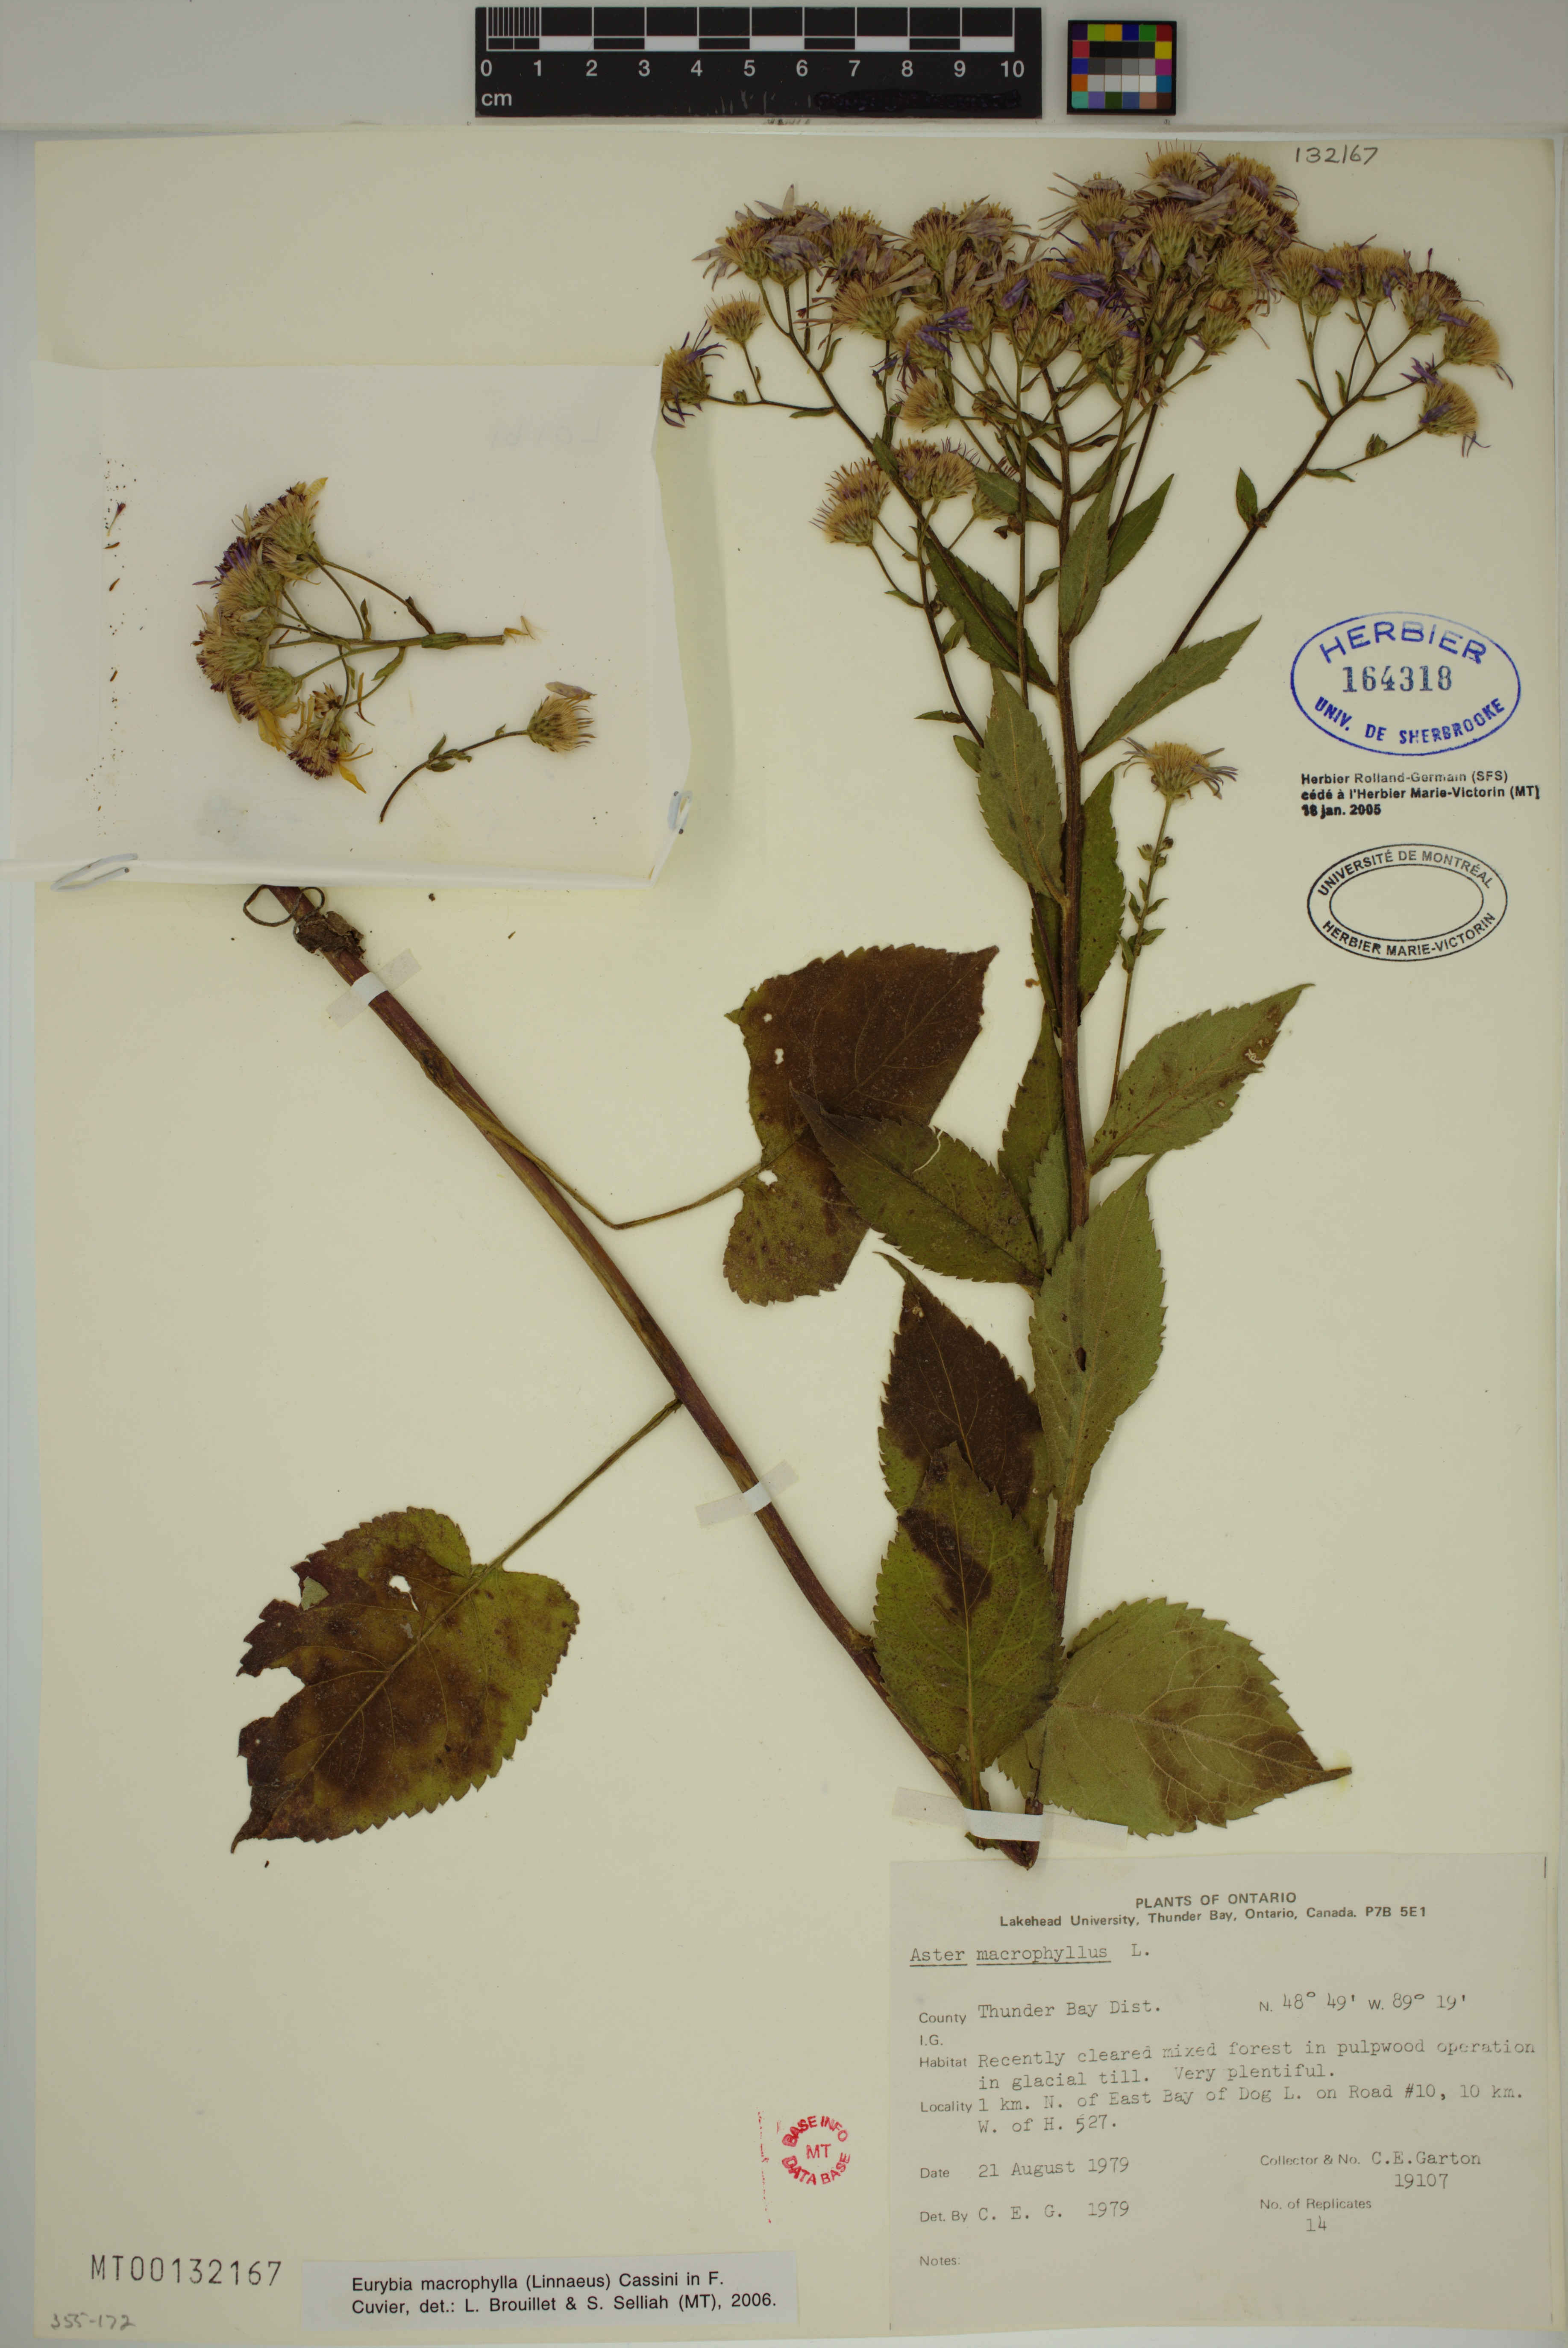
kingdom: Plantae
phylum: Tracheophyta
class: Magnoliopsida
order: Asterales
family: Asteraceae
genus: Eurybia
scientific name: Eurybia macrophylla
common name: Big-leaved aster
